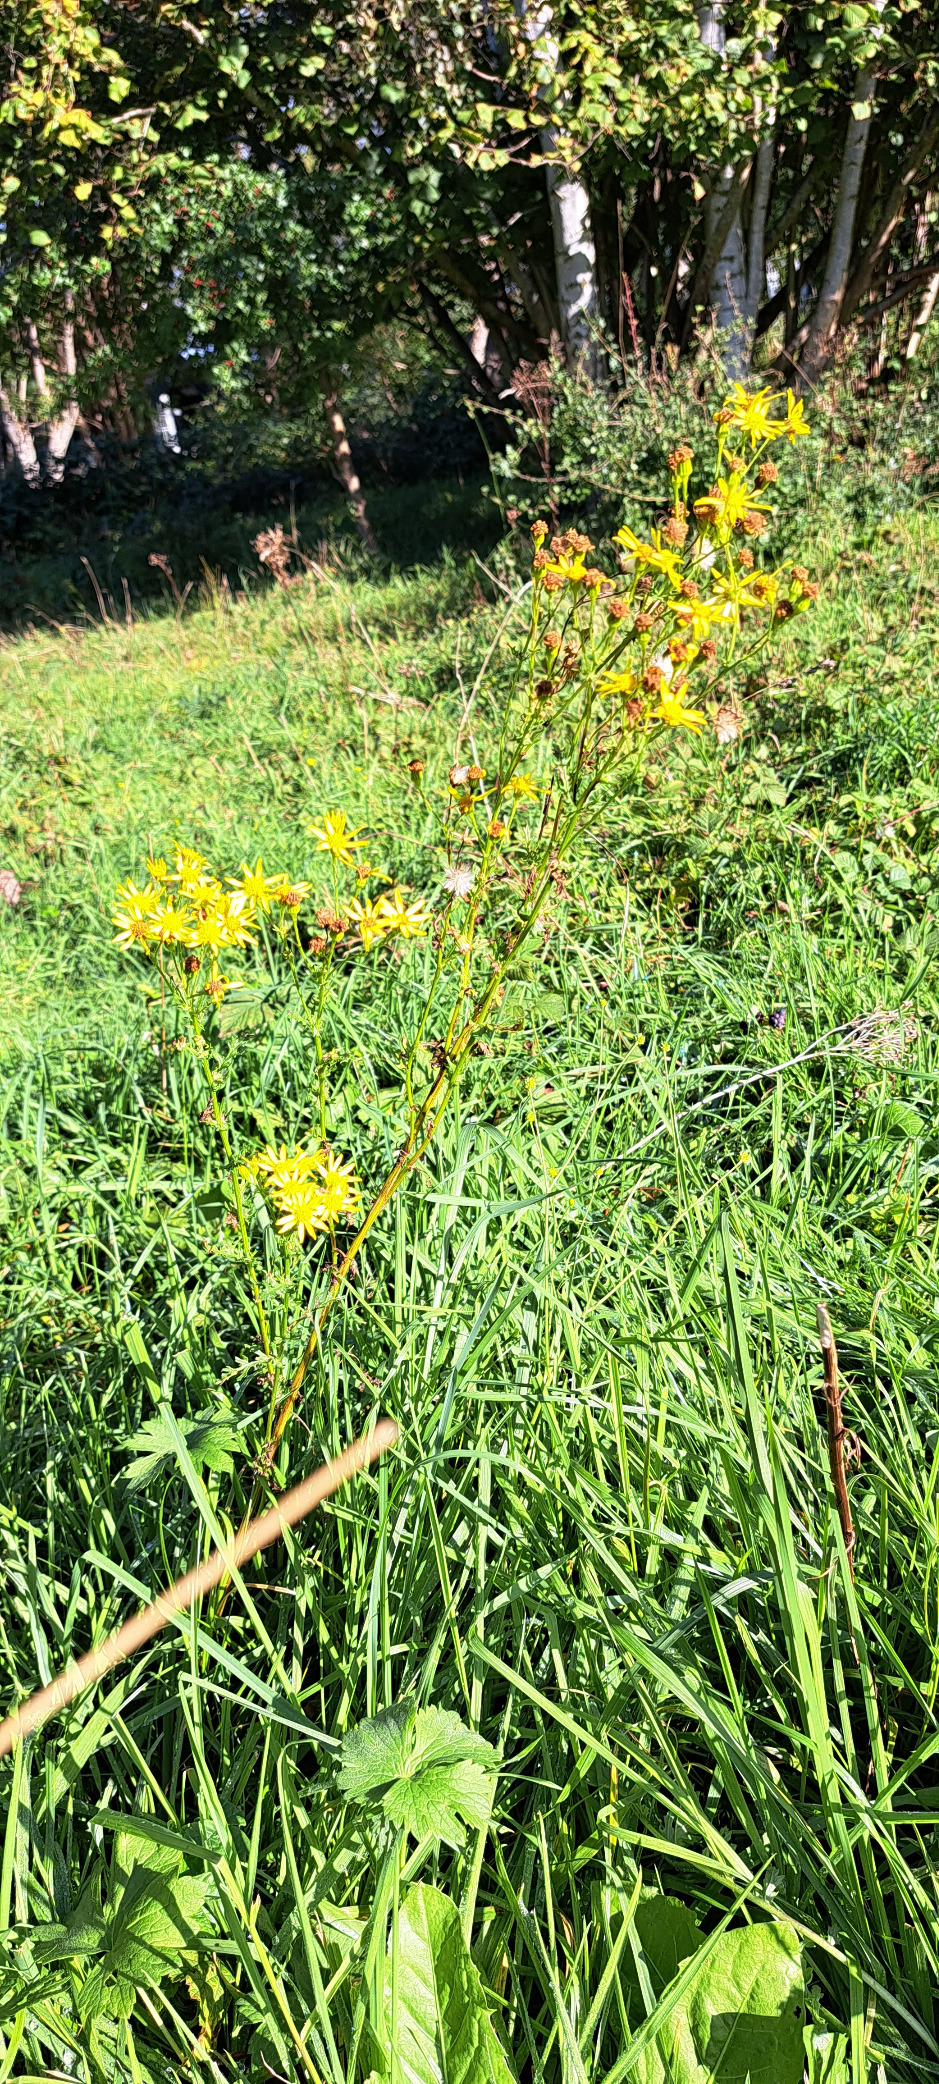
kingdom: Plantae
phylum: Tracheophyta
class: Magnoliopsida
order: Asterales
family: Asteraceae
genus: Jacobaea
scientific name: Jacobaea vulgaris
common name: Eng-brandbæger
